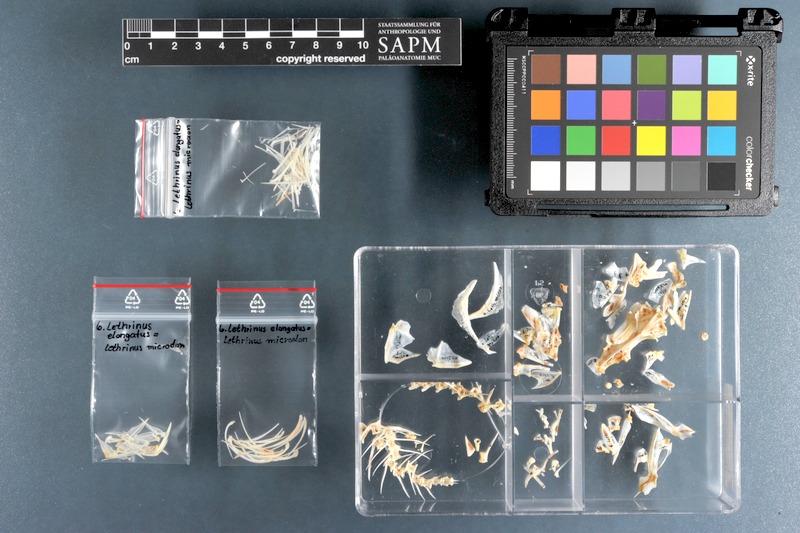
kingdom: Animalia
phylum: Chordata
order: Perciformes
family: Lethrinidae
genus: Lethrinus
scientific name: Lethrinus microdon
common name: Smalltooth emperor
